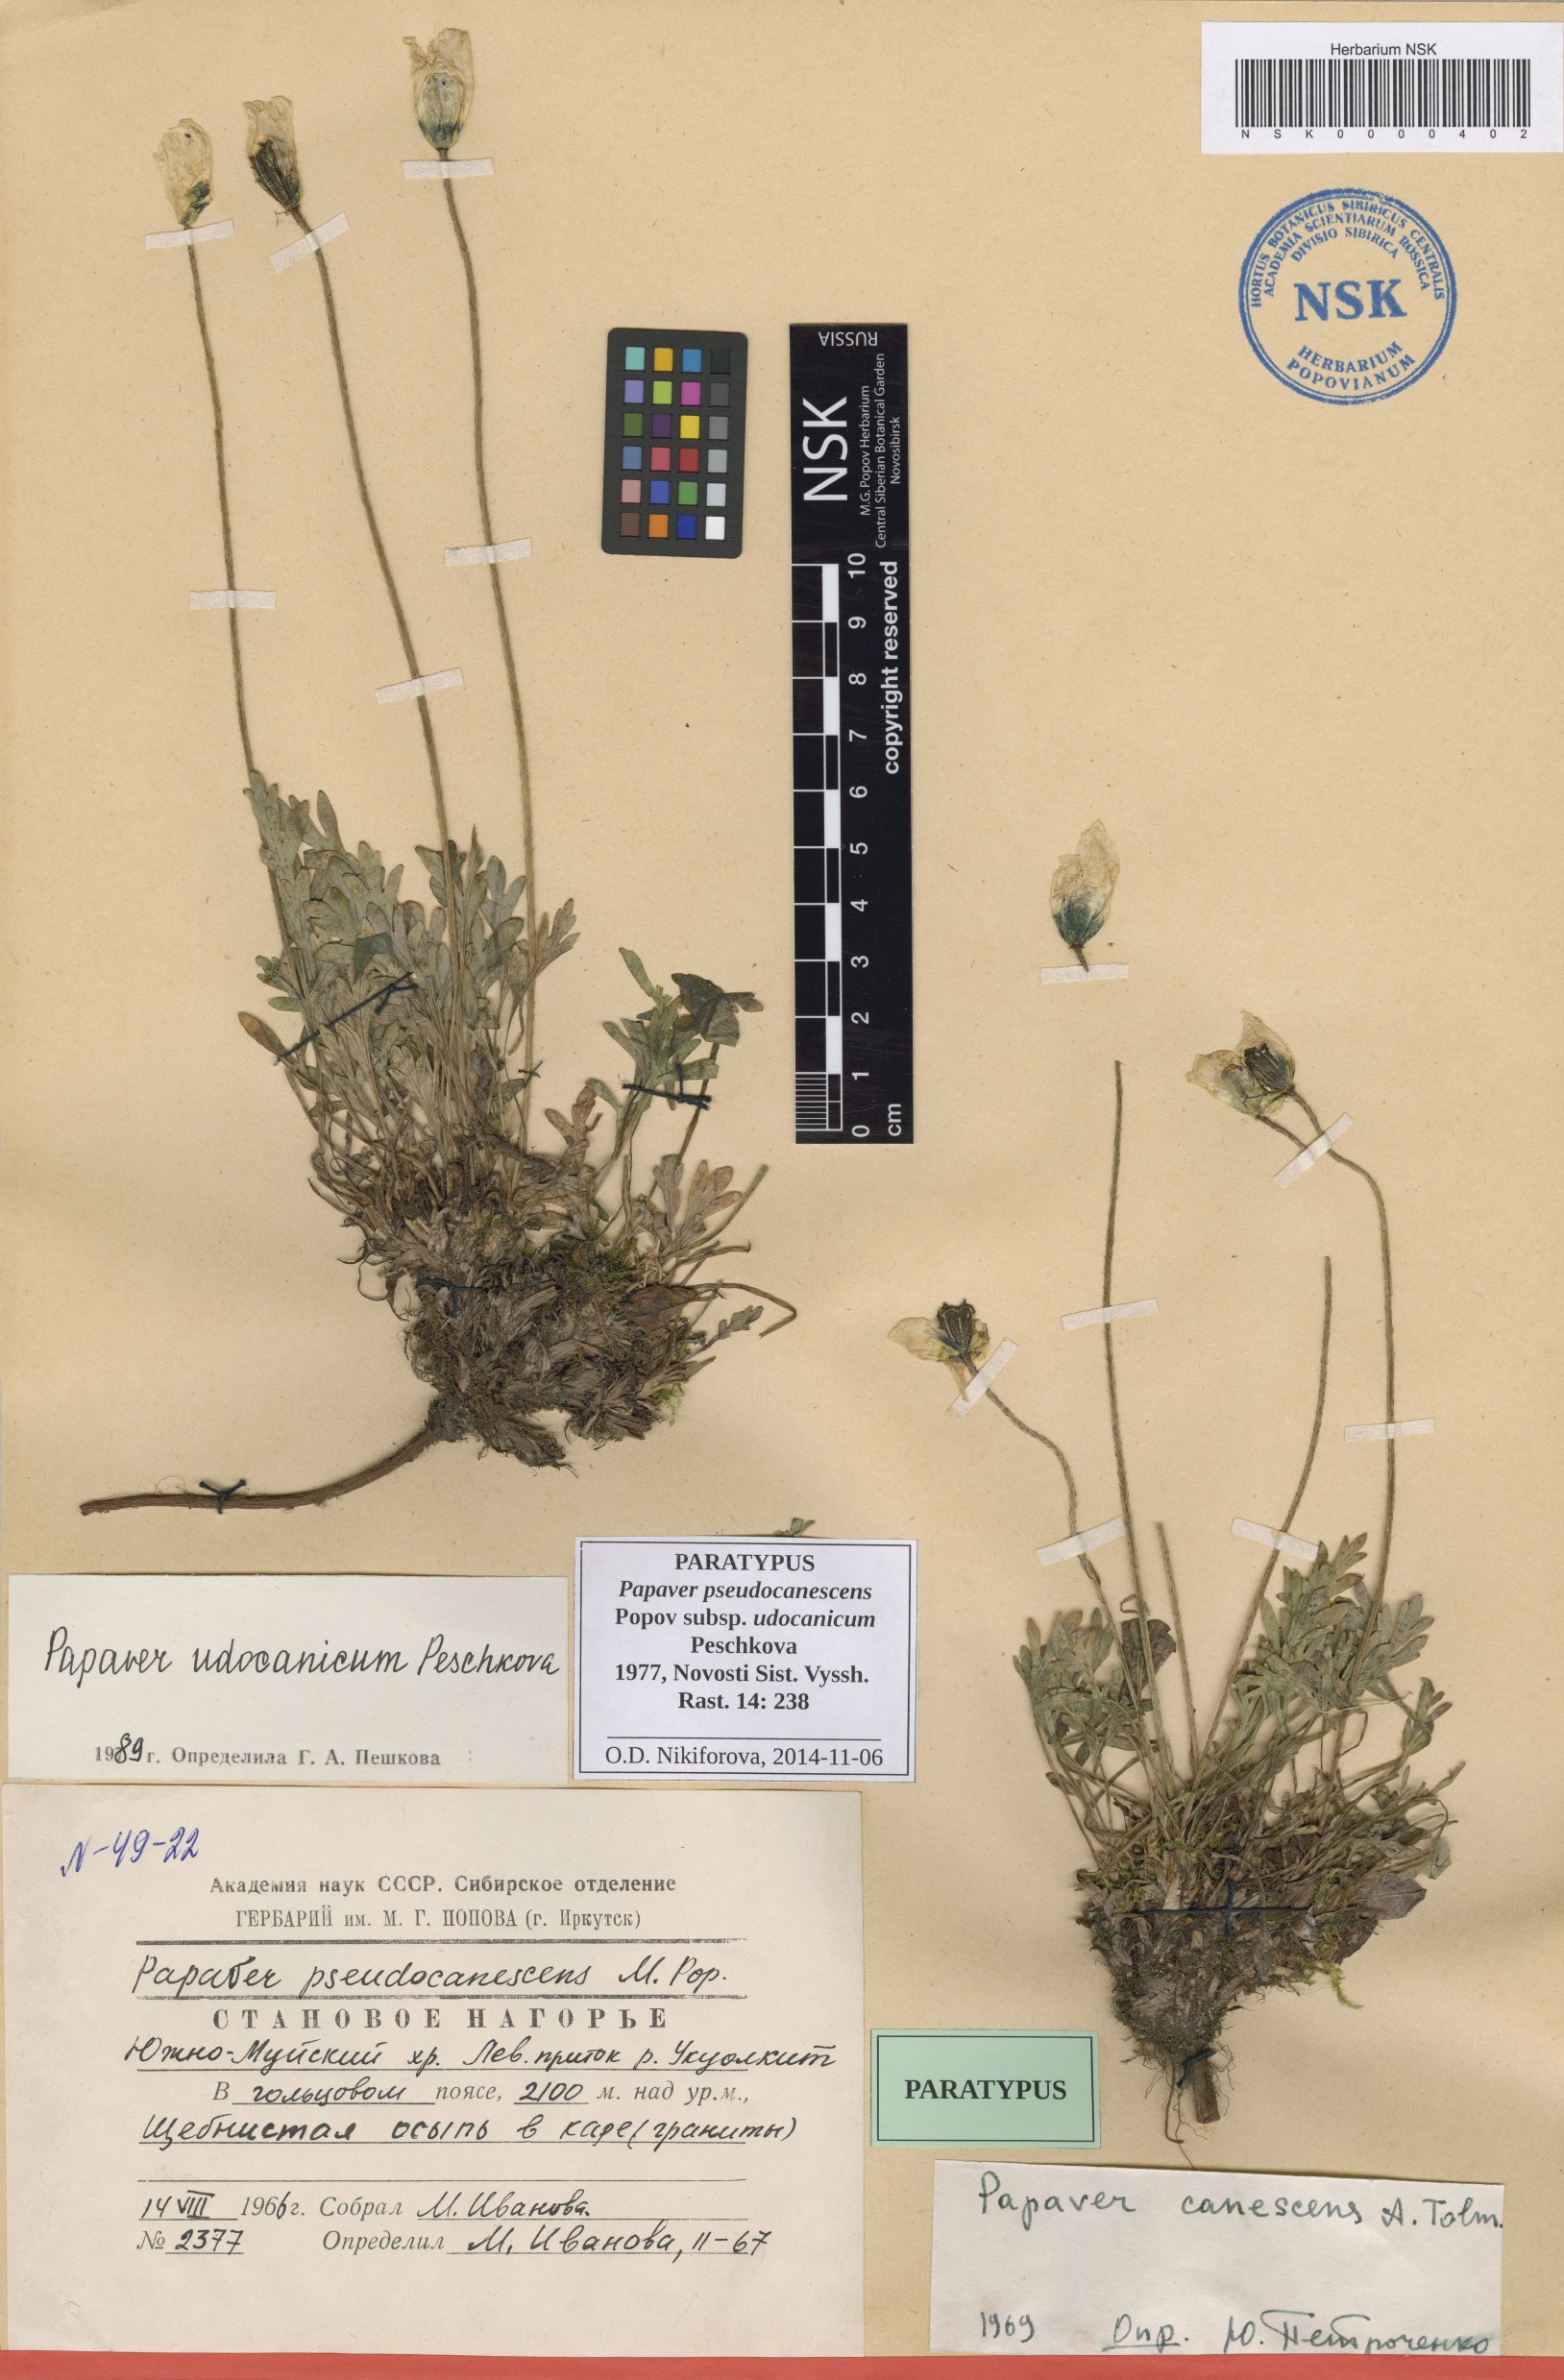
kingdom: Plantae
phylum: Tracheophyta
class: Magnoliopsida
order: Ranunculales
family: Papaveraceae
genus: Papaver
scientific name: Papaver udocanicum
